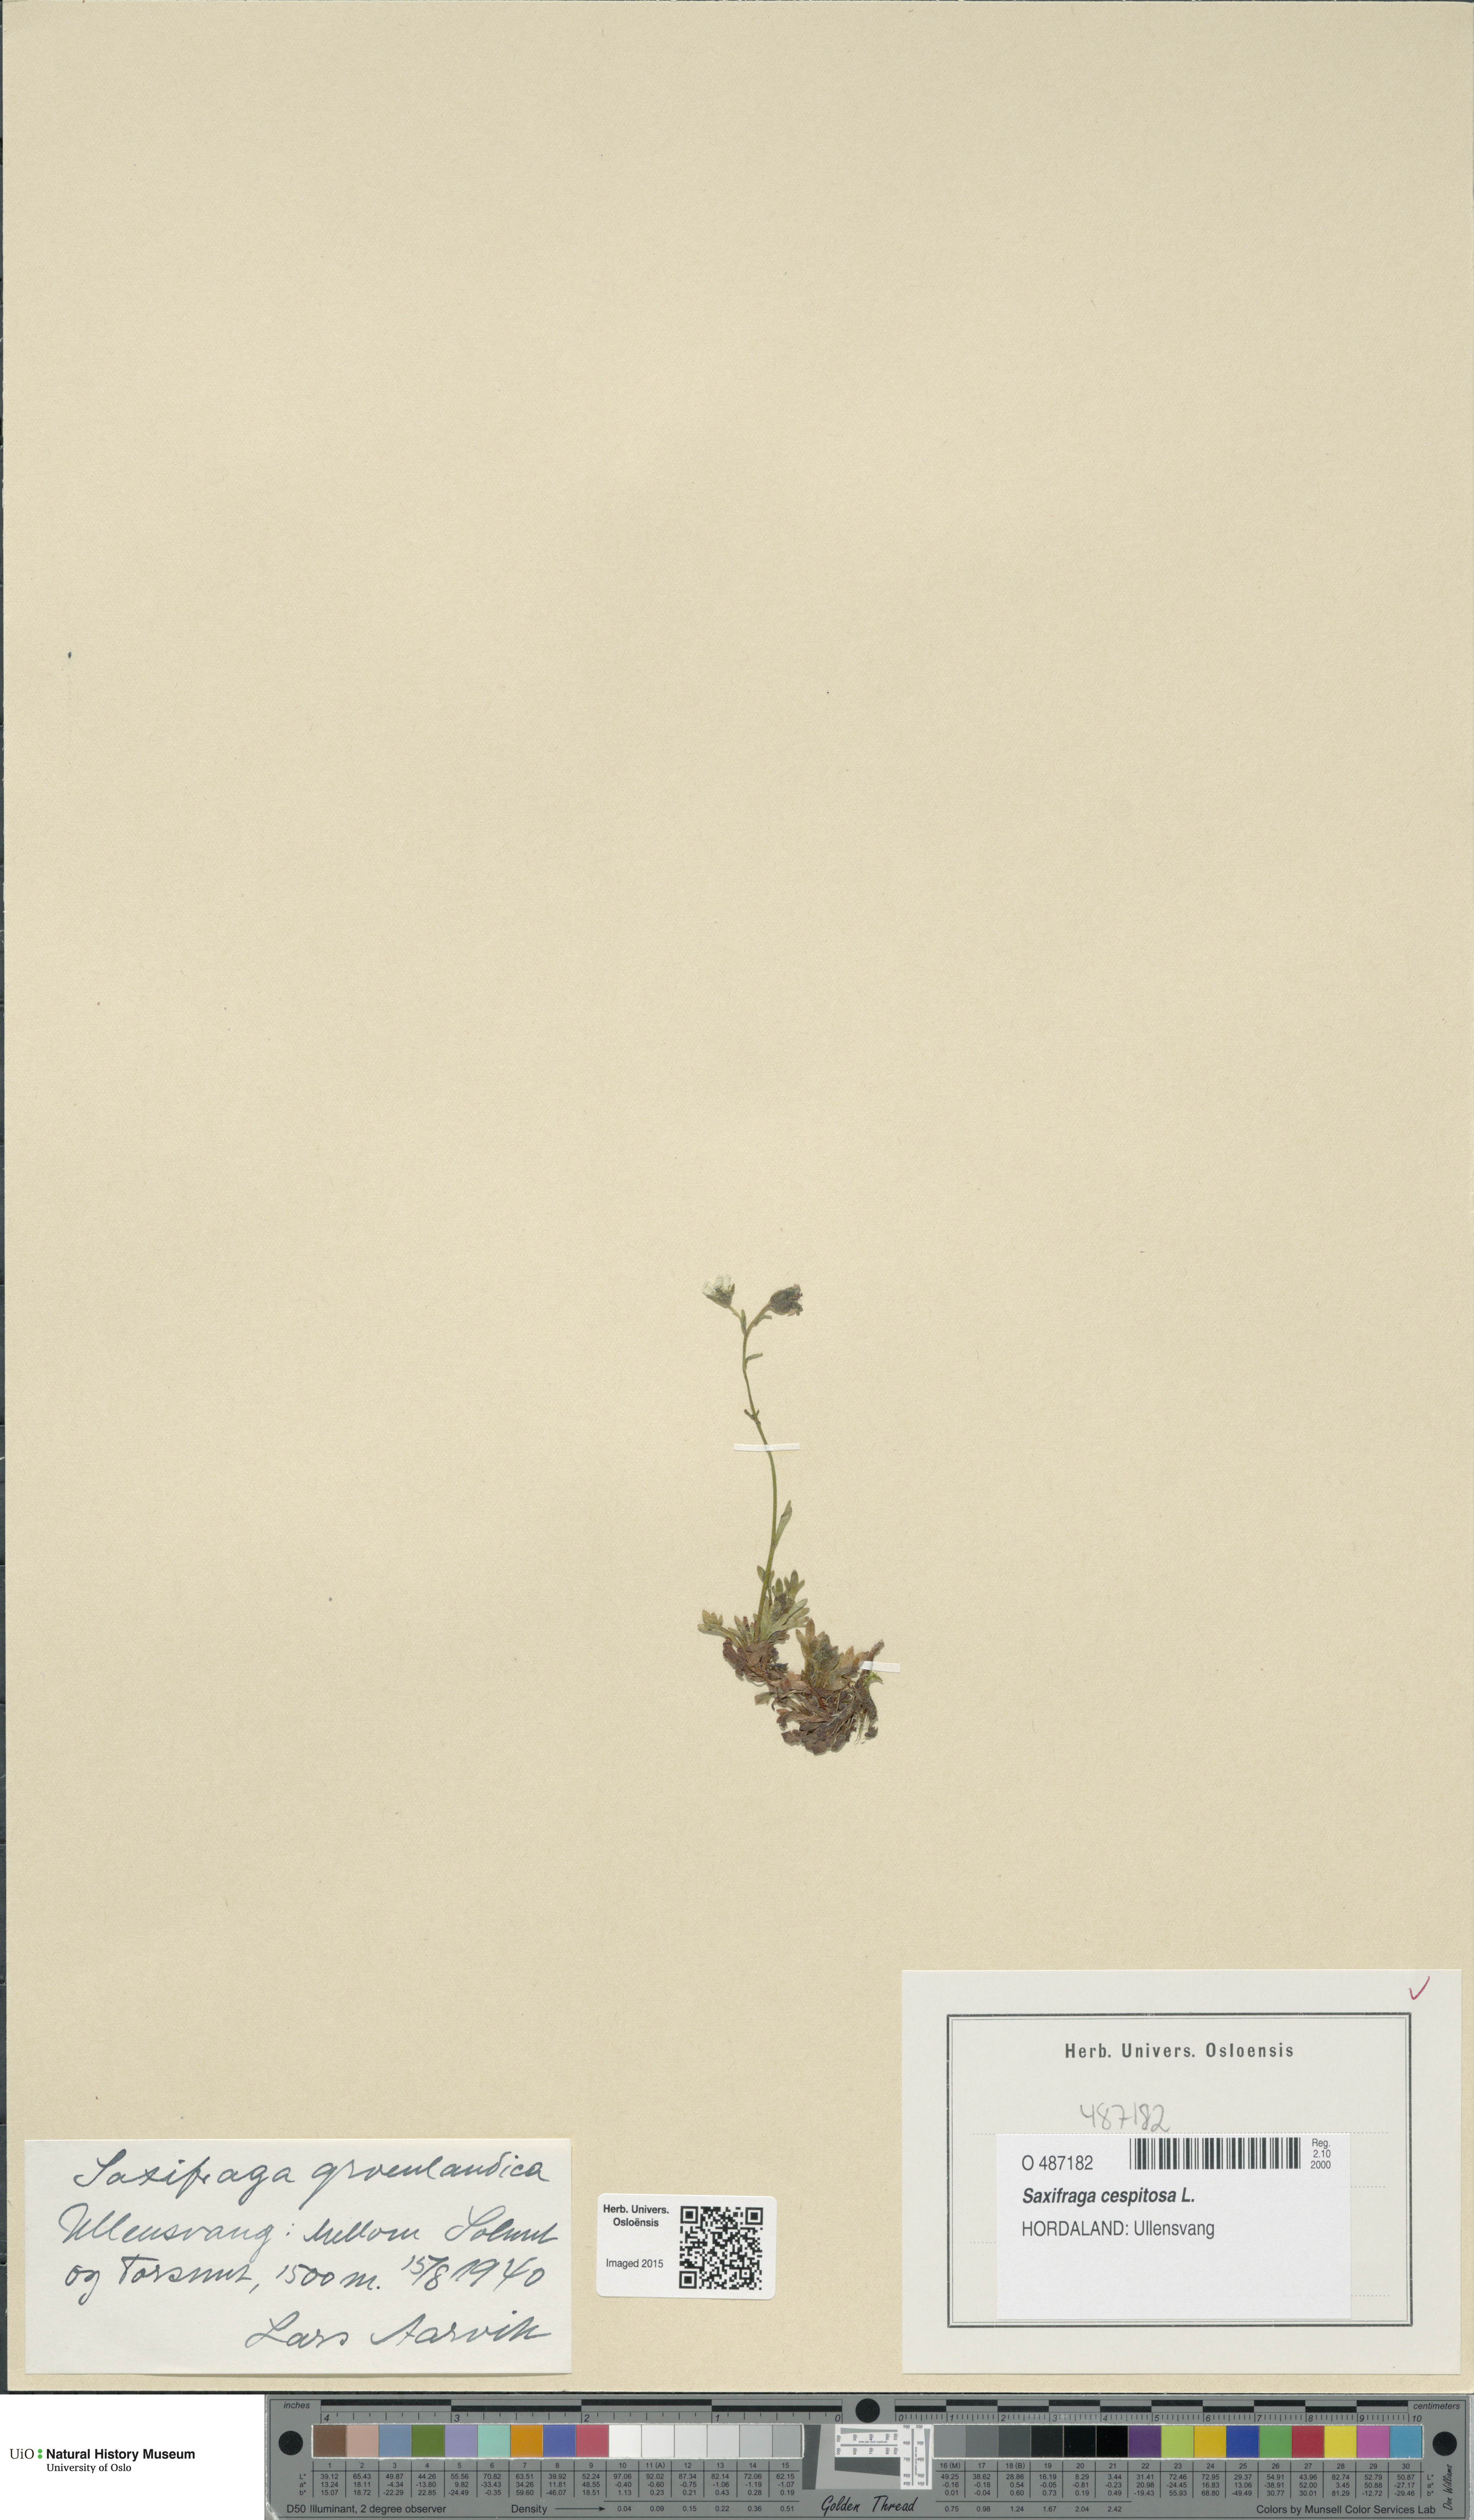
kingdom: Plantae
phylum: Tracheophyta
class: Magnoliopsida
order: Saxifragales
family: Saxifragaceae
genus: Saxifraga
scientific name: Saxifraga cespitosa
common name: Tufted saxifrage
